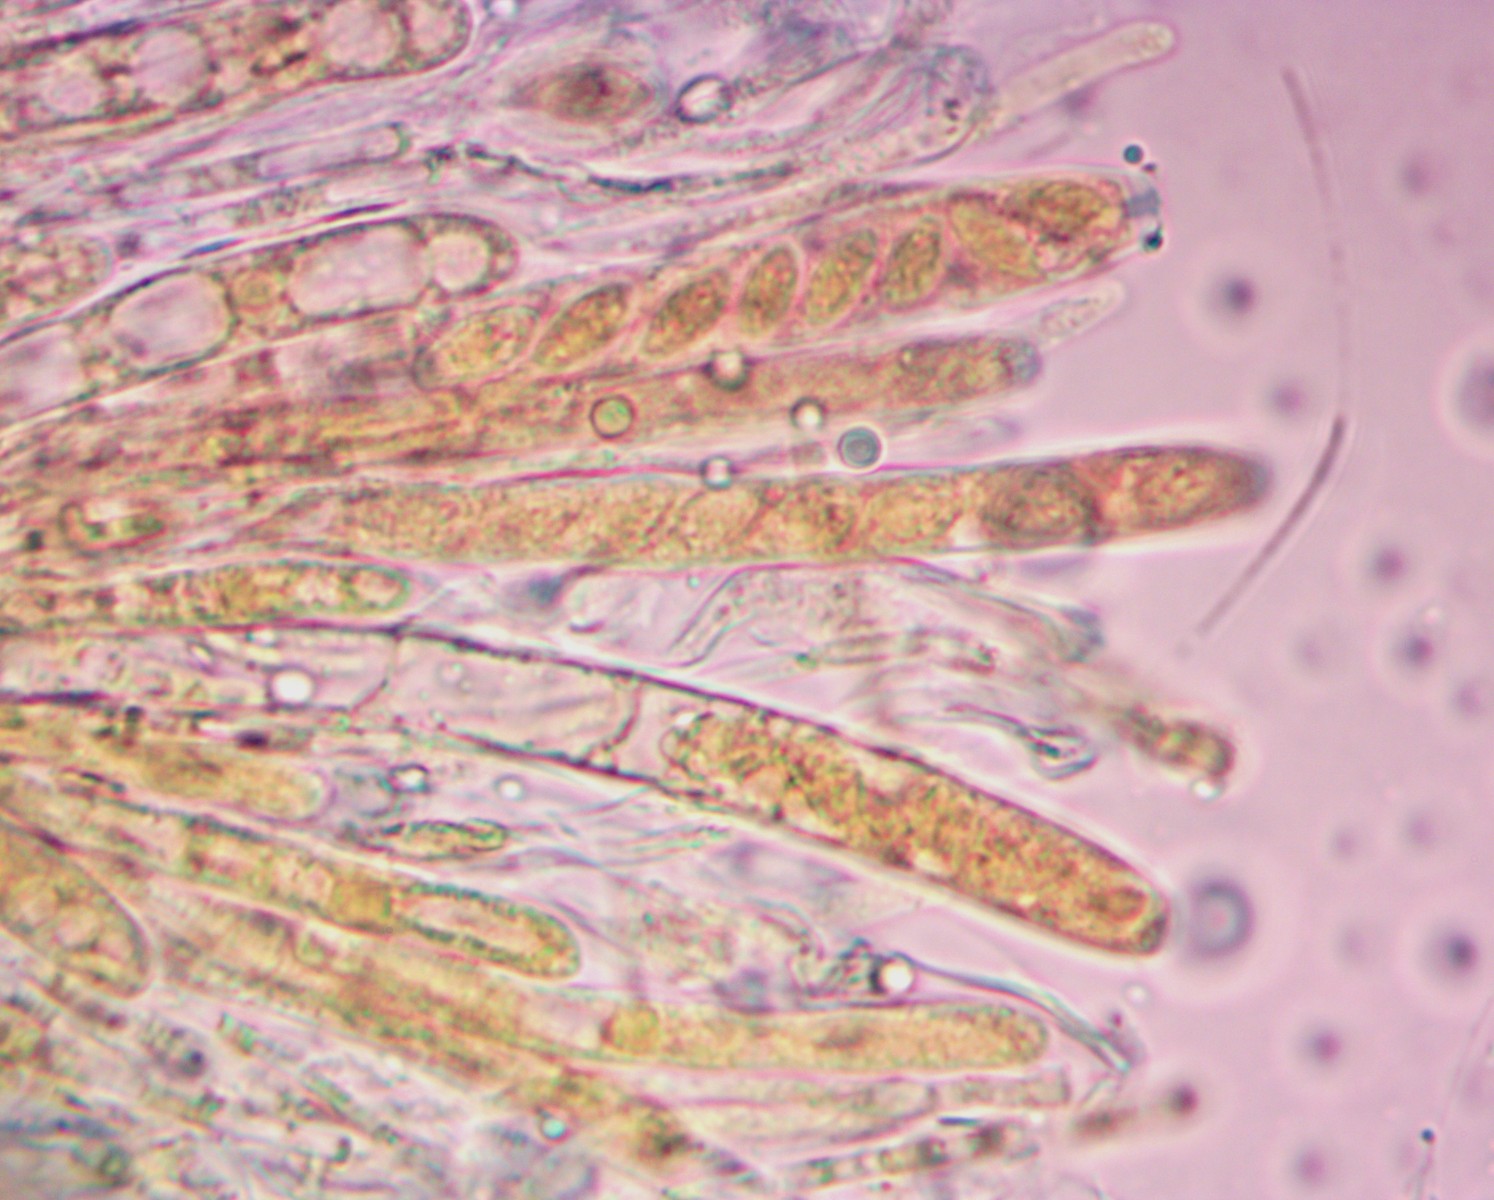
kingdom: Fungi
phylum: Ascomycota
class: Leotiomycetes
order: Helotiales
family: Rutstroemiaceae
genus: Rutstroemia
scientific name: Rutstroemia conformata
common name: elleblads-brunskive
